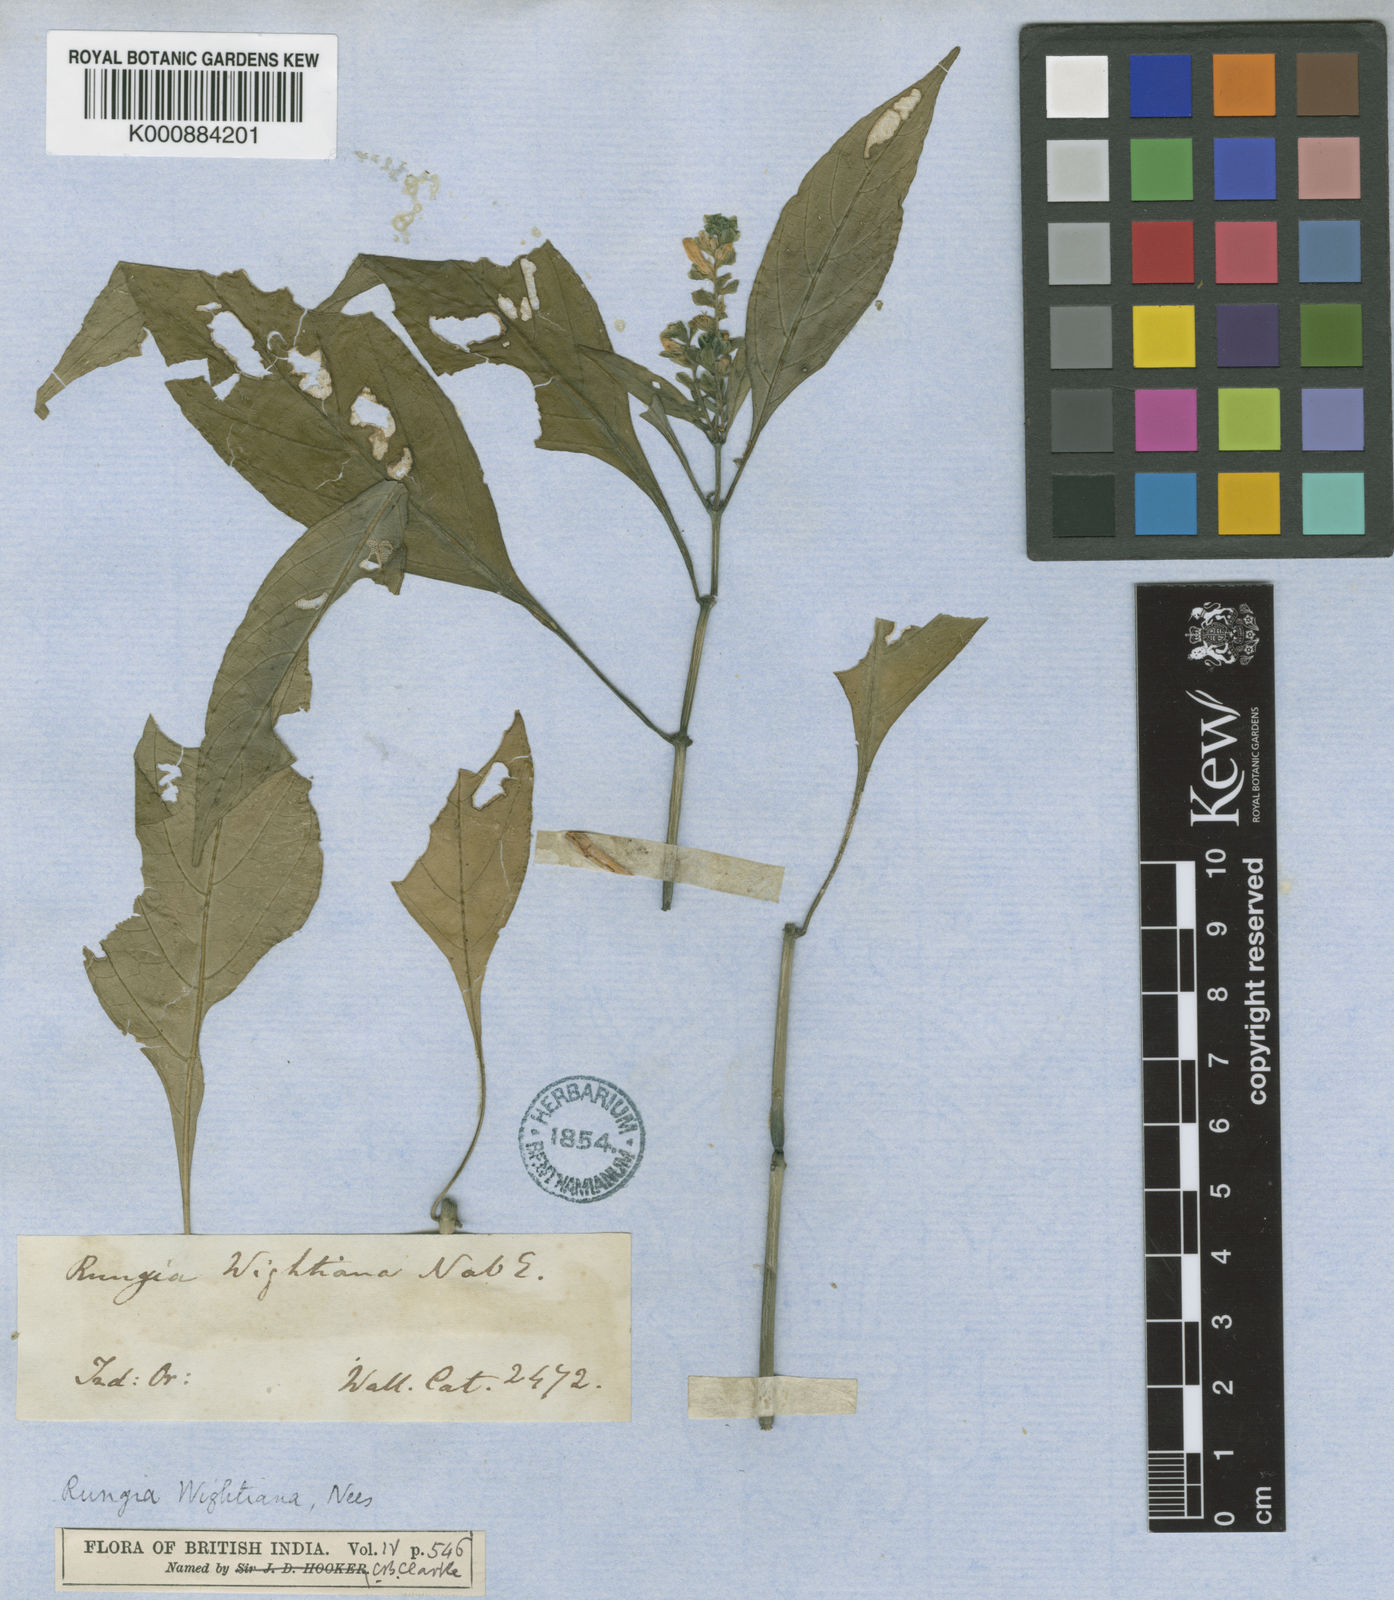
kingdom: Plantae
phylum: Tracheophyta
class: Magnoliopsida
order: Lamiales
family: Acanthaceae
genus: Rungia
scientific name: Rungia wightiana
